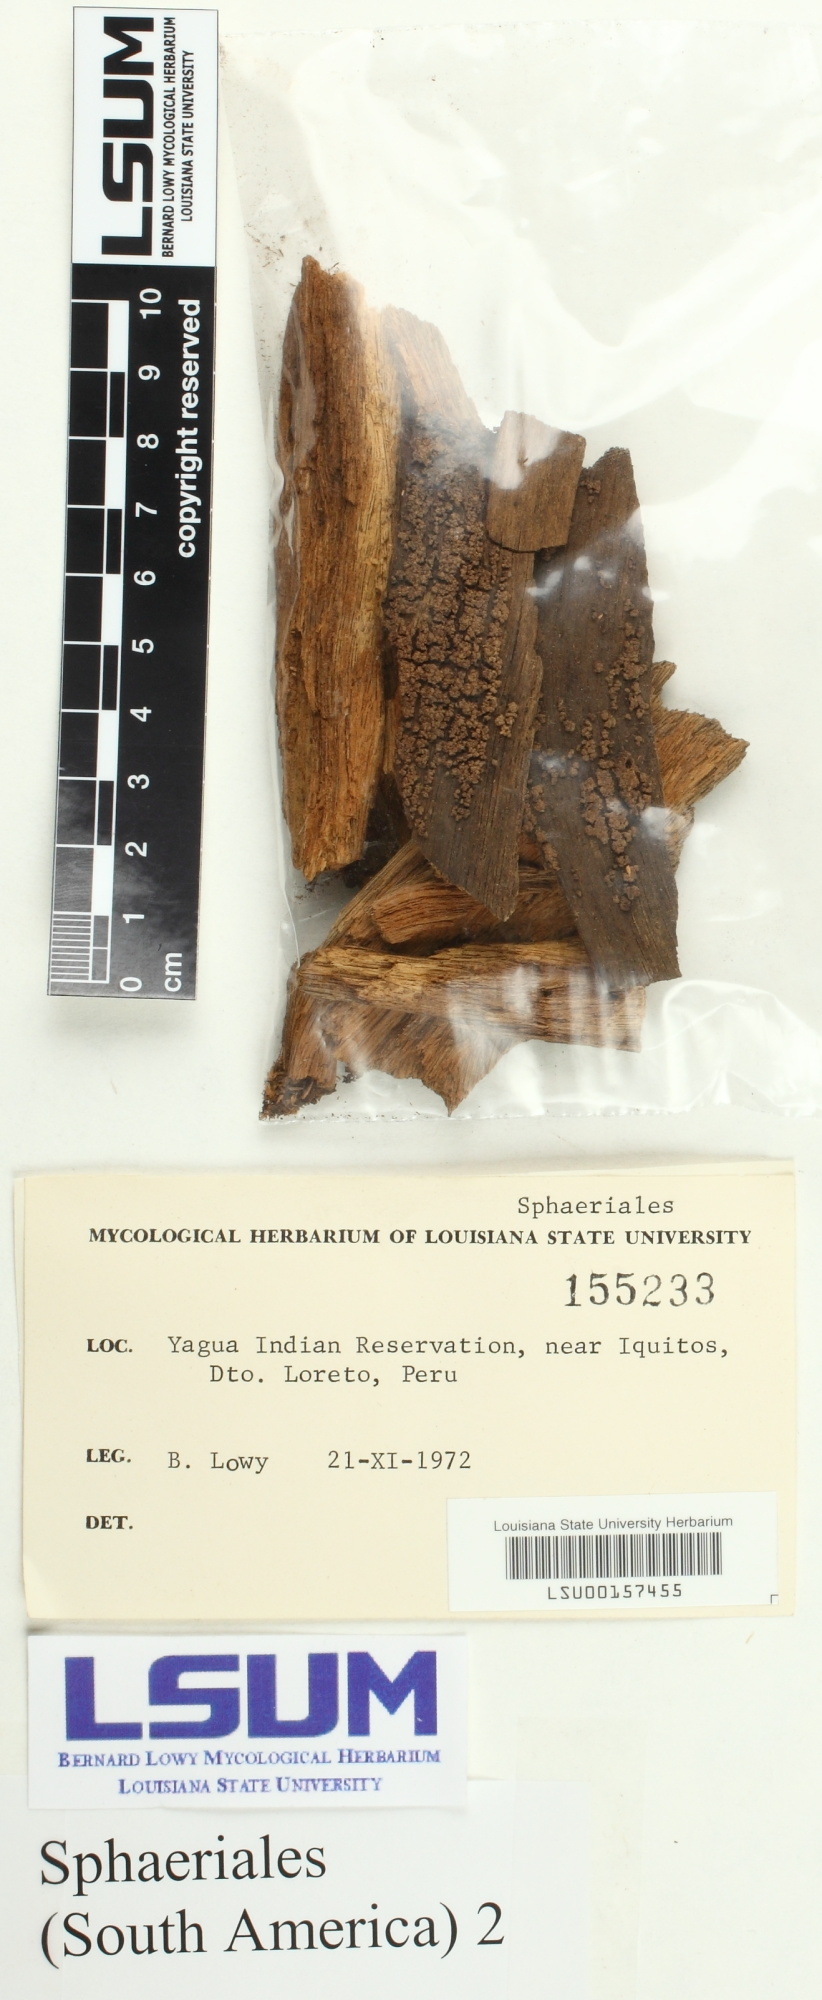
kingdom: Fungi
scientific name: Fungi
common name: Fungi
